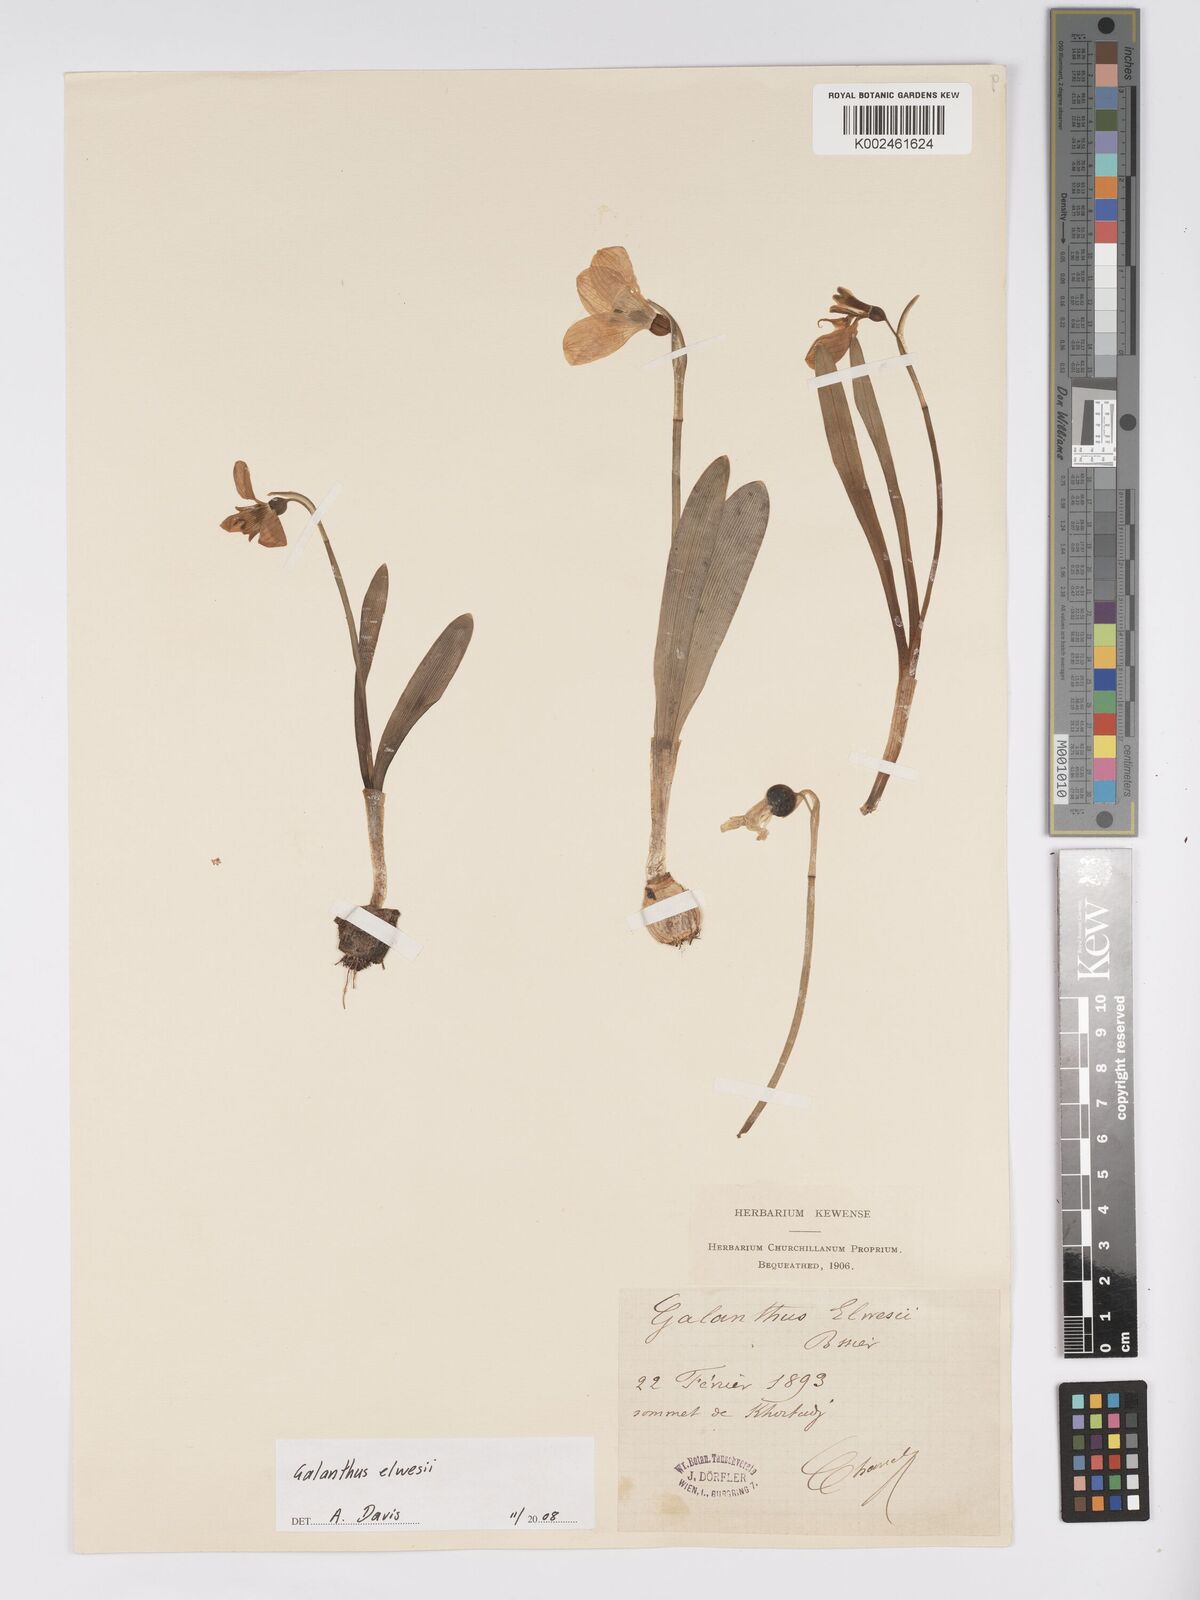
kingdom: Plantae
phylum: Tracheophyta
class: Liliopsida
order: Asparagales
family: Amaryllidaceae
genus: Galanthus
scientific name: Galanthus elwesii
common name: Greater snowdrop
